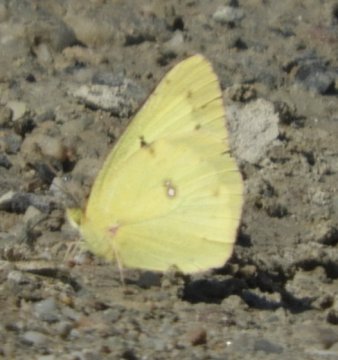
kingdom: Animalia
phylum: Arthropoda
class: Insecta
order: Lepidoptera
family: Pieridae
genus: Colias
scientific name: Colias philodice
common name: Clouded Sulphur
